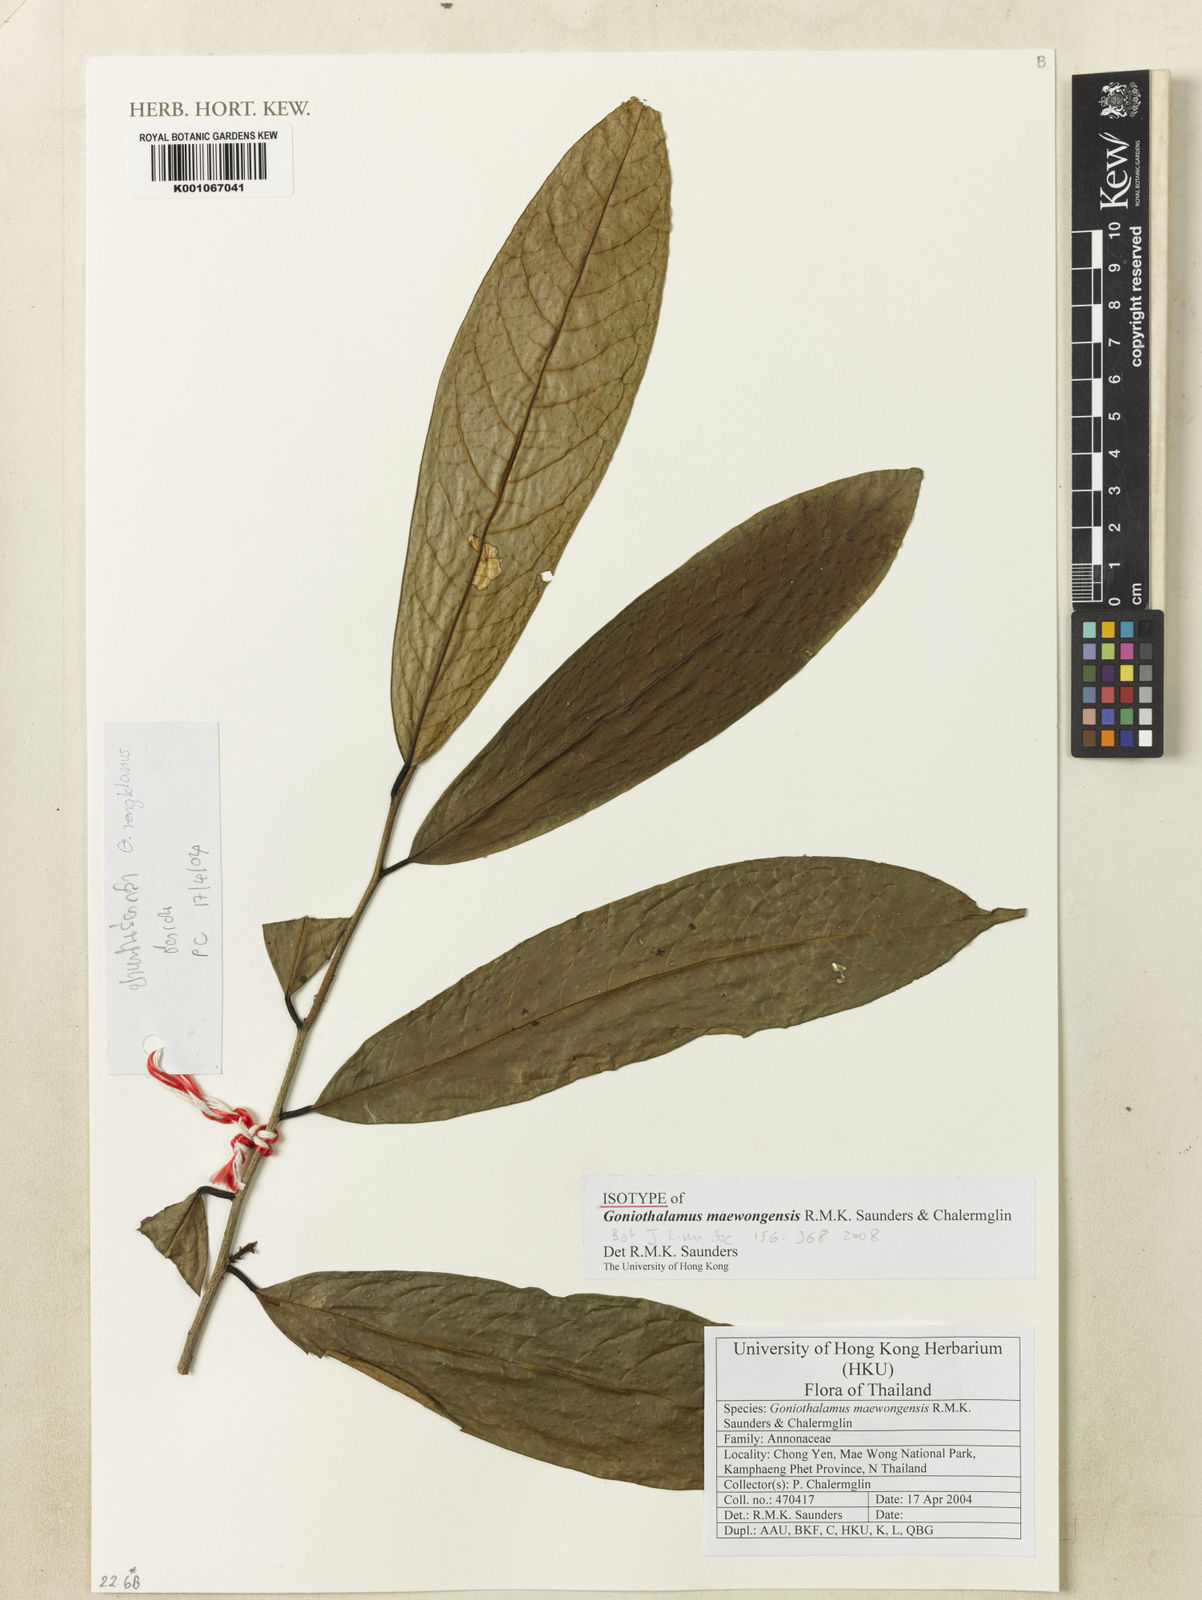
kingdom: Plantae
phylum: Tracheophyta
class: Magnoliopsida
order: Magnoliales
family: Annonaceae
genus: Goniothalamus
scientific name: Goniothalamus maewongensis
